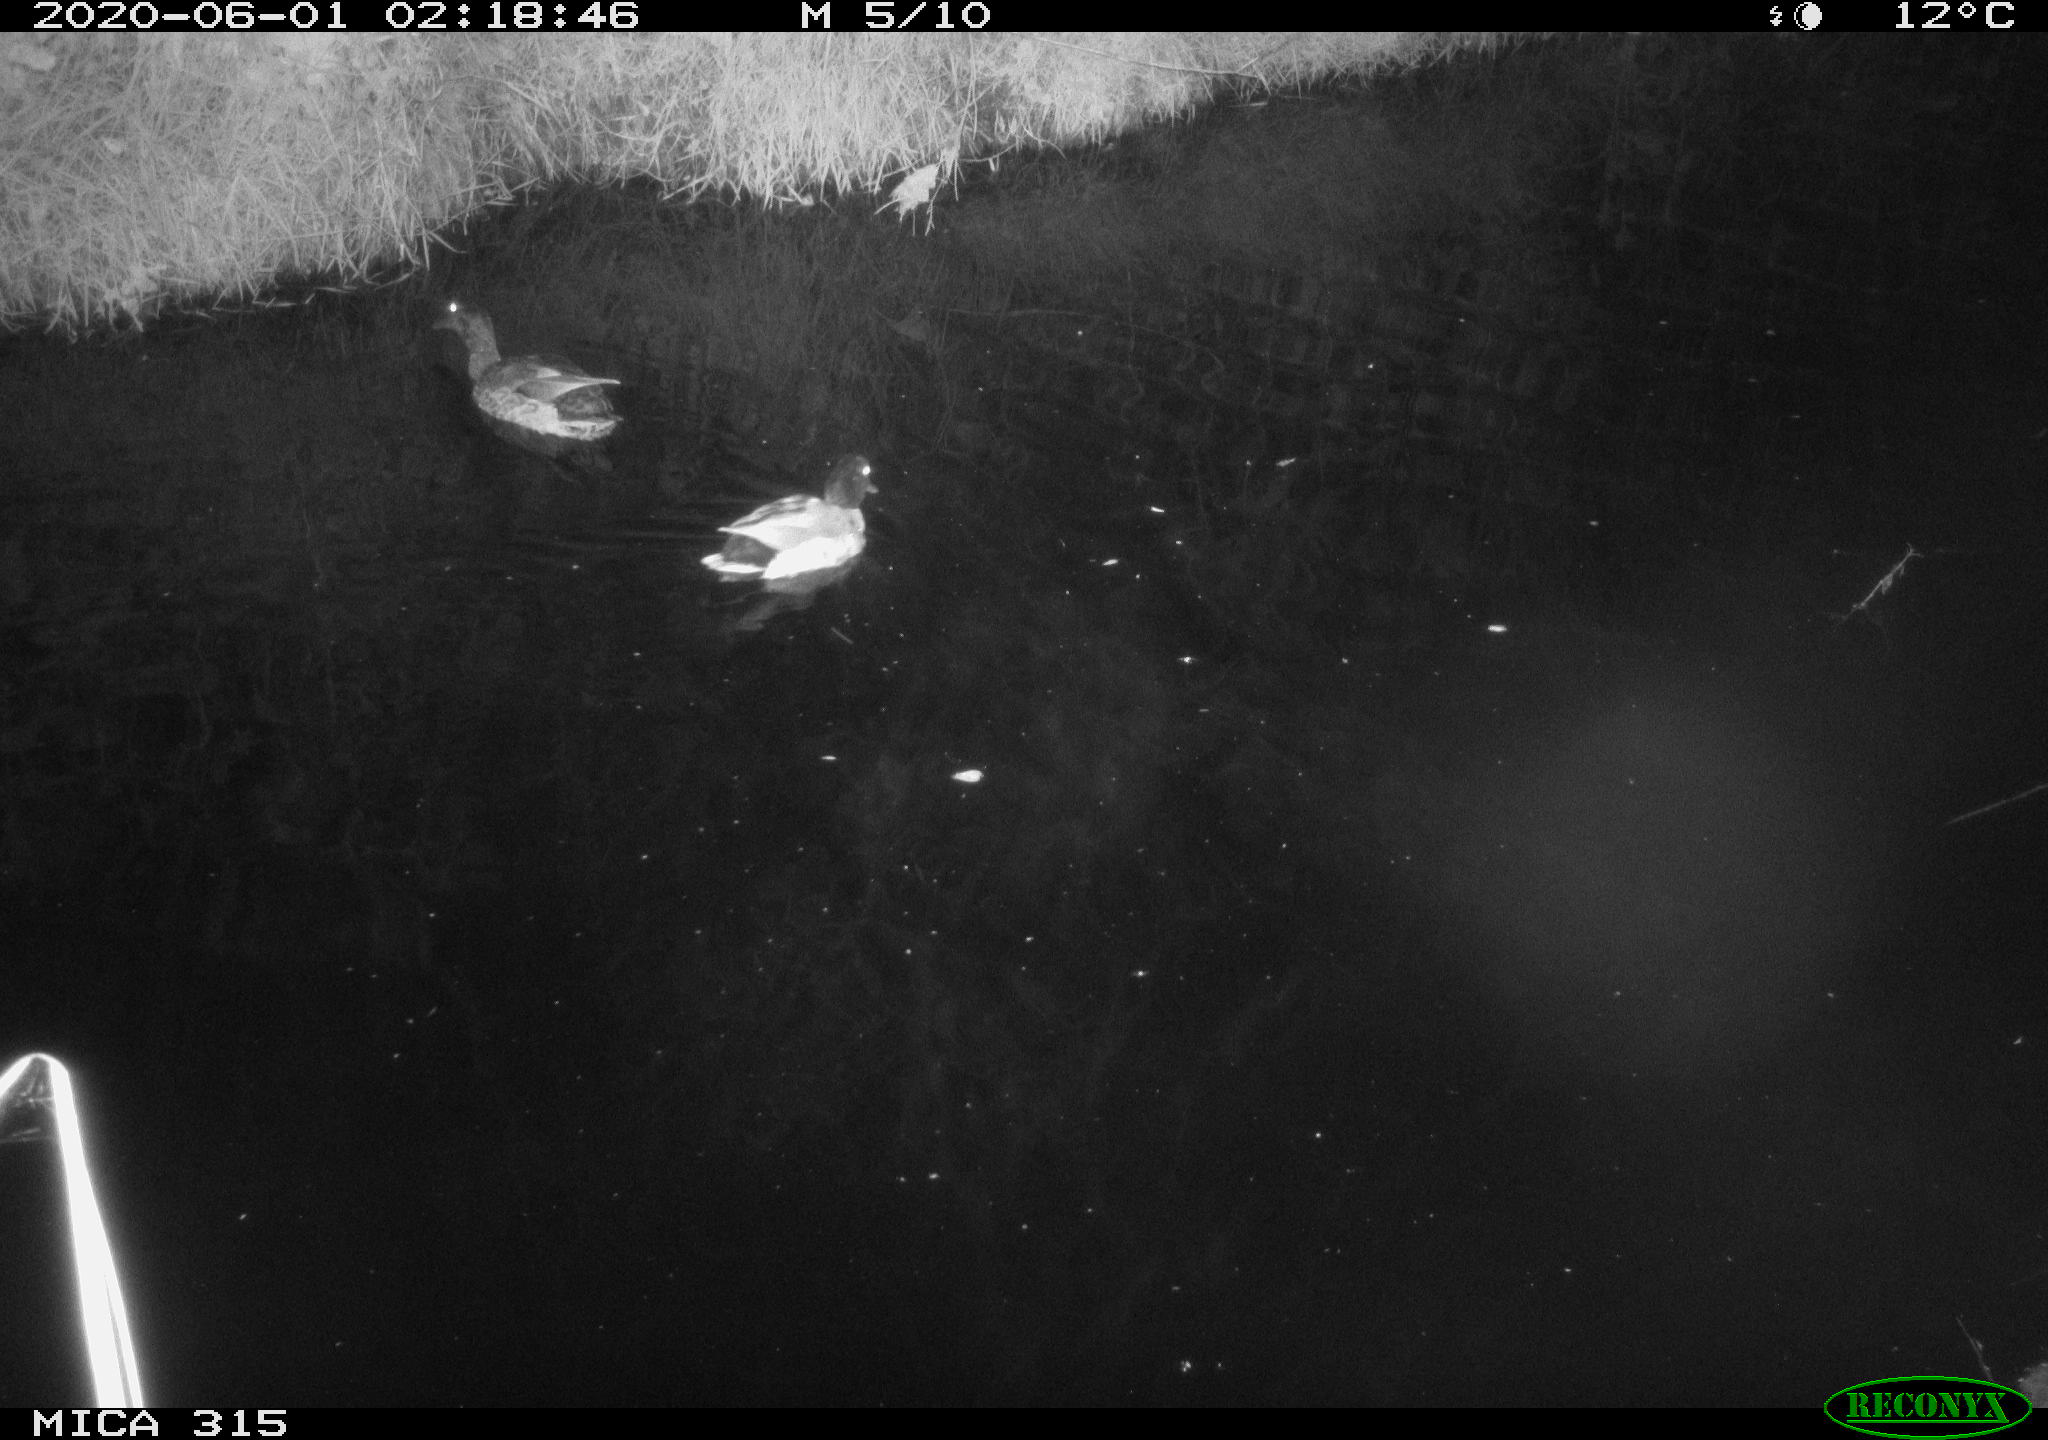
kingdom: Animalia
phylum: Chordata
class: Aves
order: Anseriformes
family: Anatidae
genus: Anas
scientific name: Anas platyrhynchos
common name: Mallard
